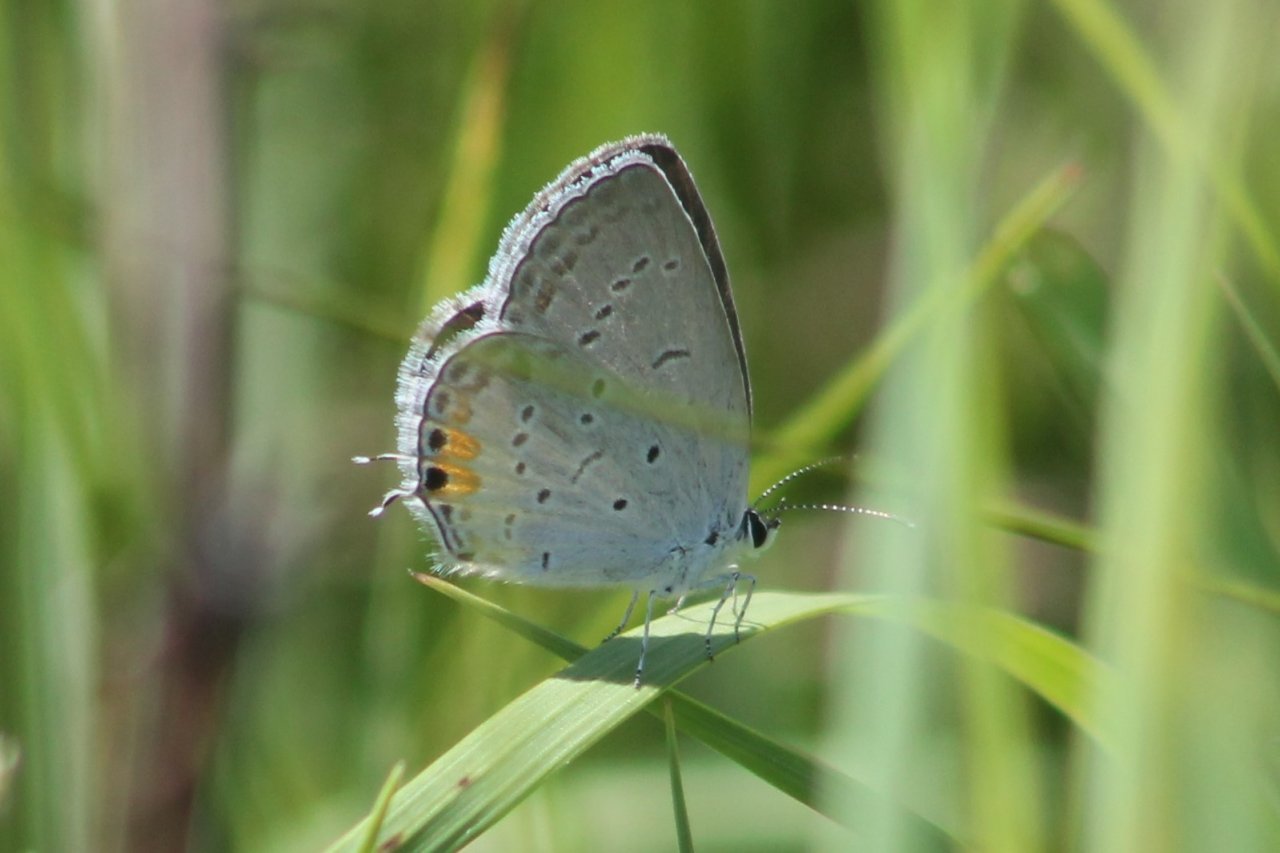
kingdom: Animalia
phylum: Arthropoda
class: Insecta
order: Lepidoptera
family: Lycaenidae
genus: Elkalyce
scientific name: Elkalyce comyntas
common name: Eastern Tailed-Blue
